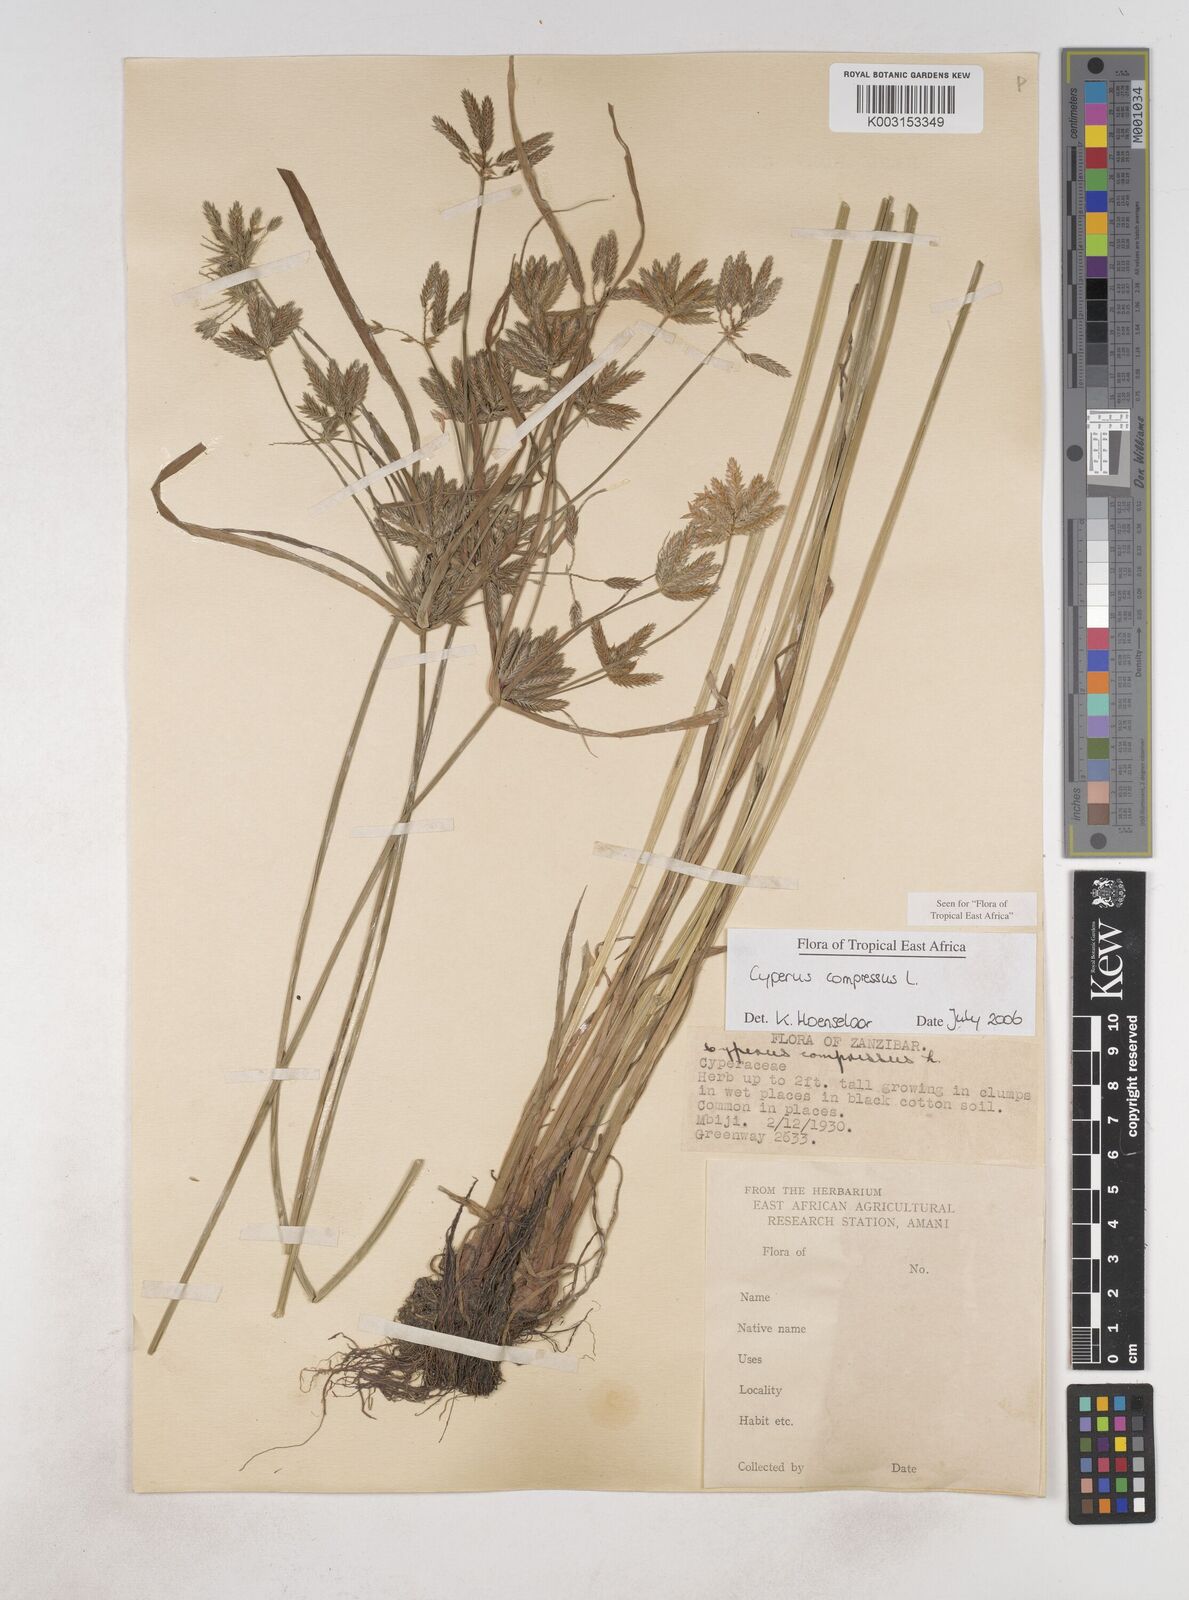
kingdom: Plantae
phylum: Tracheophyta
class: Liliopsida
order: Poales
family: Cyperaceae
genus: Cyperus
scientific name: Cyperus compressus
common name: Poorland flatsedge
